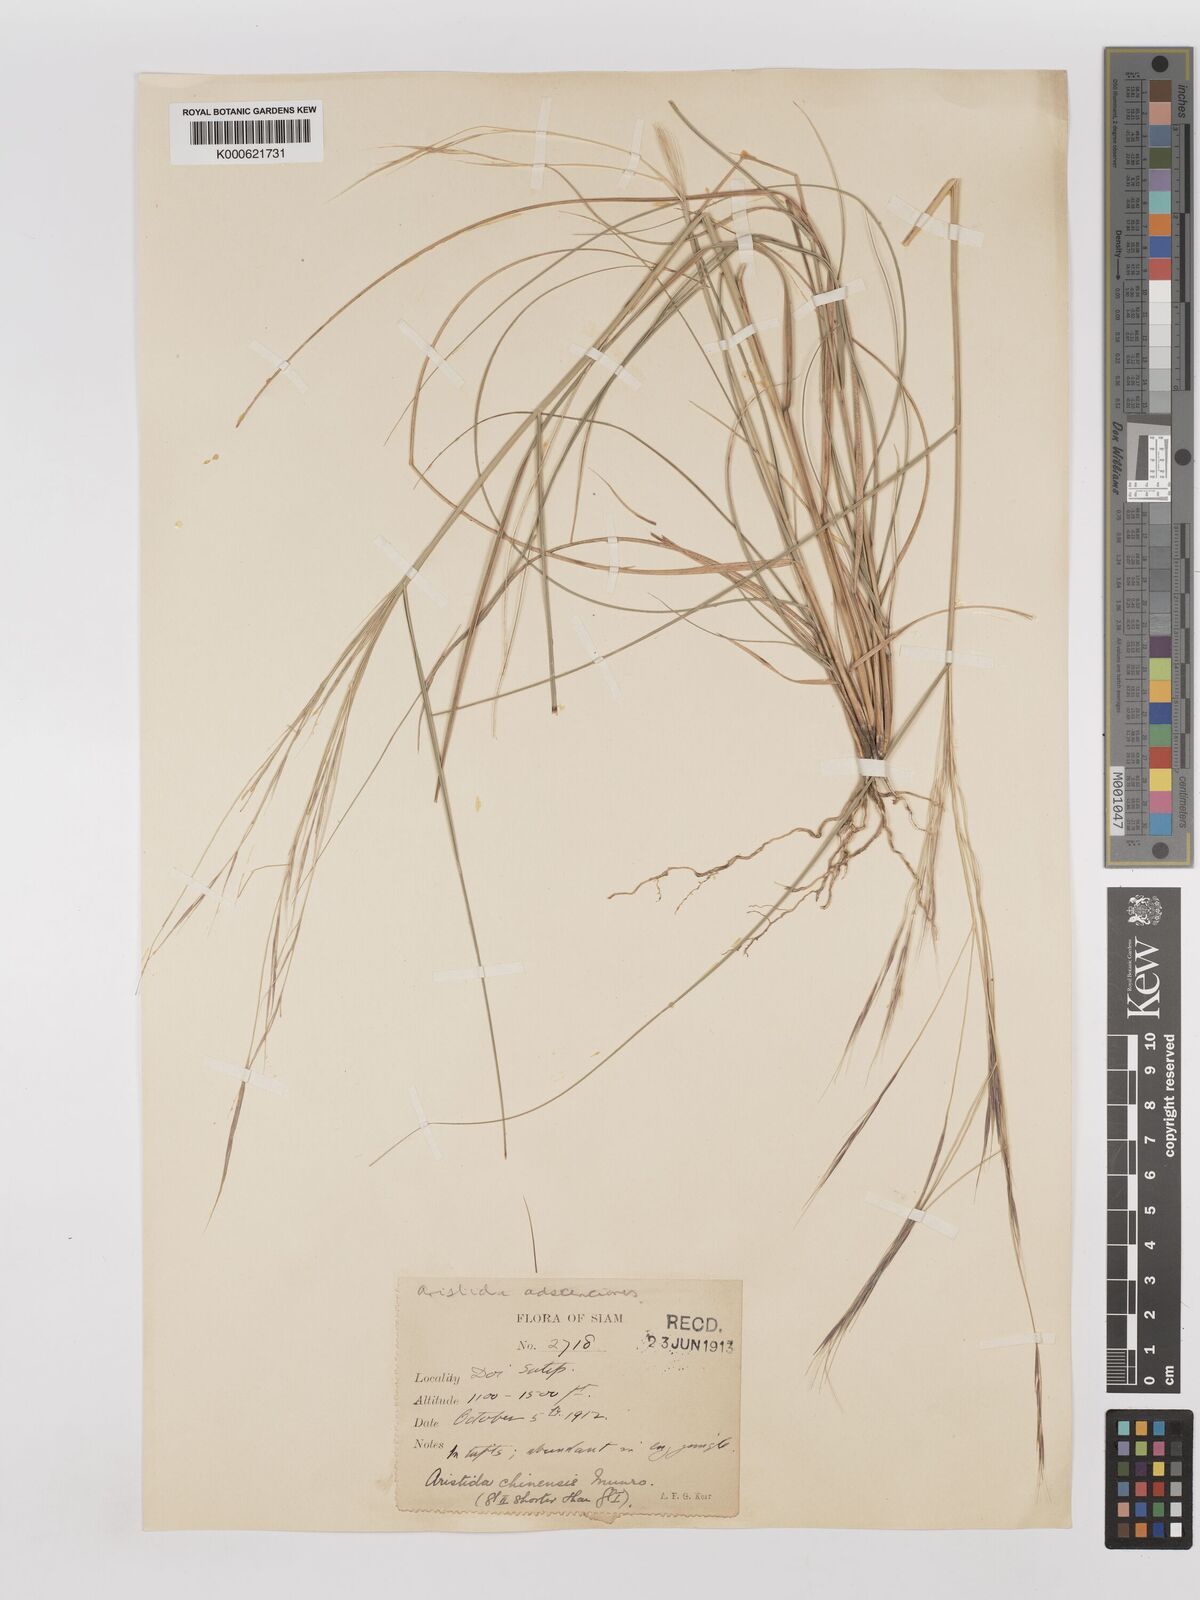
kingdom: Plantae
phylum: Tracheophyta
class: Liliopsida
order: Poales
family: Poaceae
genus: Aristida
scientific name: Aristida chinensis
